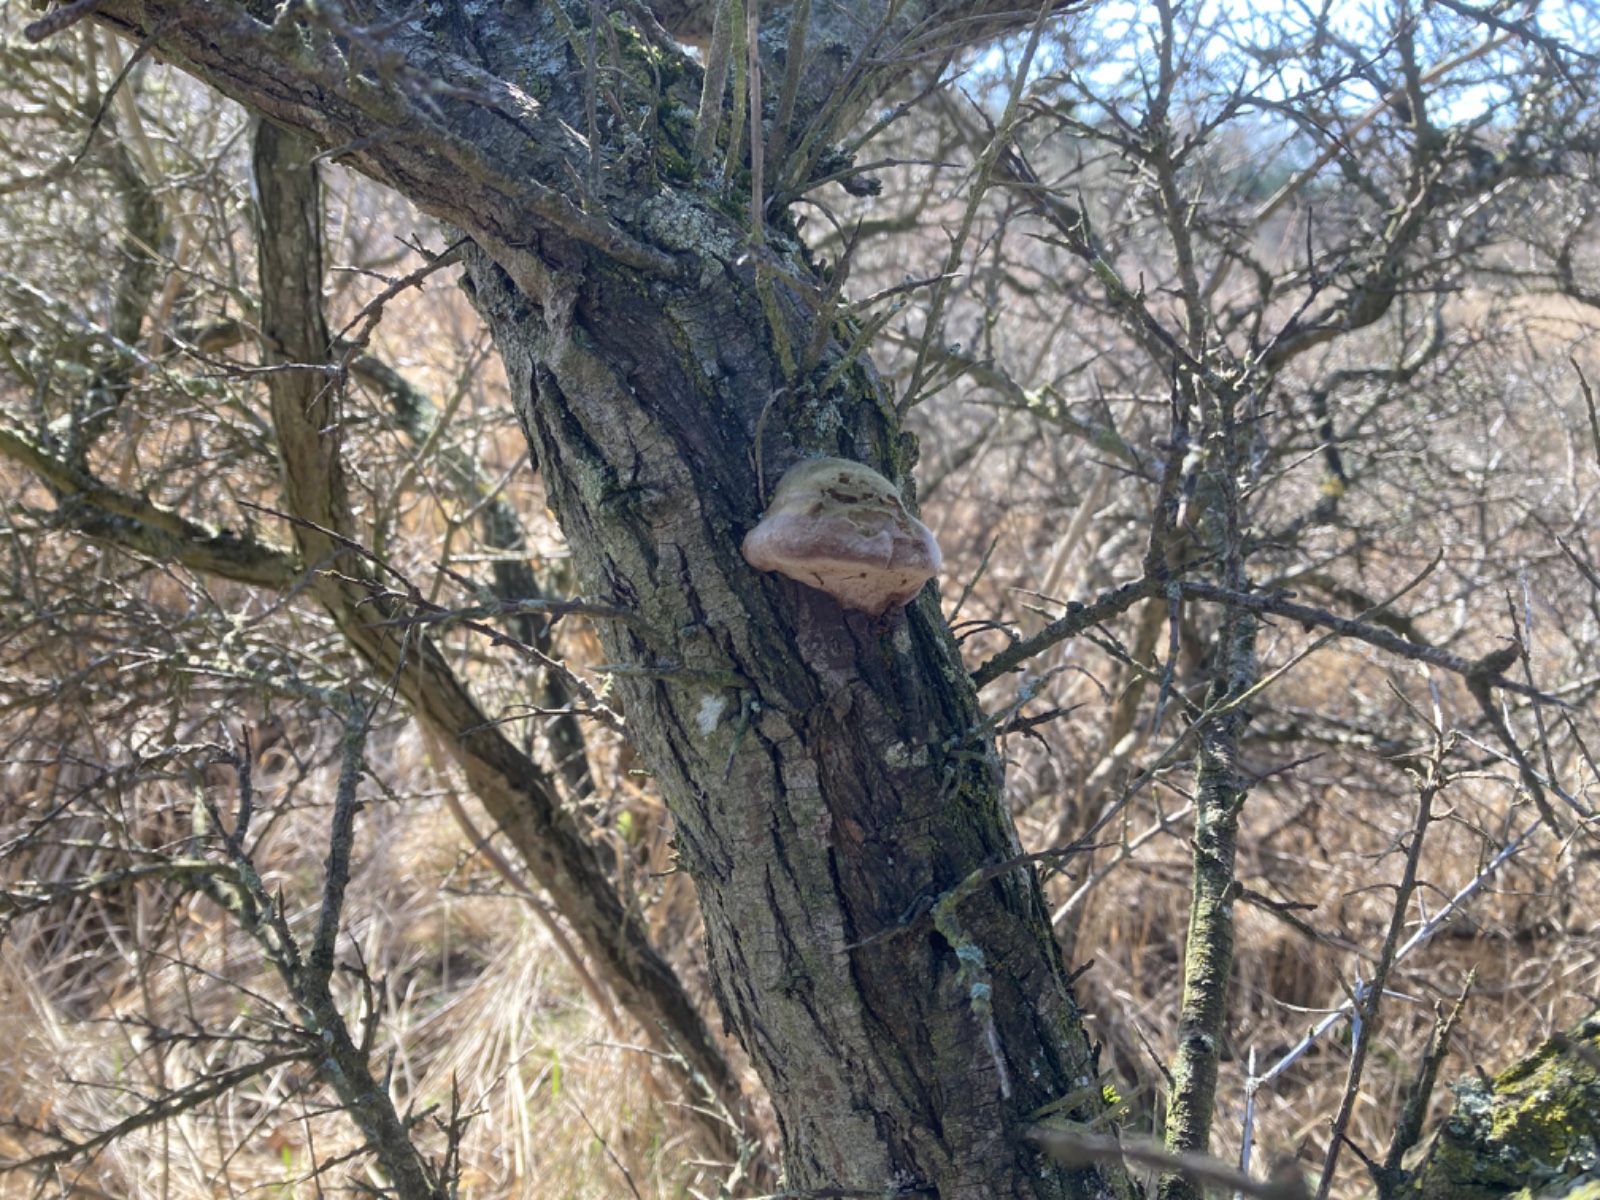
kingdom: Fungi
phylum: Basidiomycota
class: Agaricomycetes
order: Hymenochaetales
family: Hymenochaetaceae
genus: Fomitiporia
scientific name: Fomitiporia hippophaeicola
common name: havtorn-ildporesvamp
